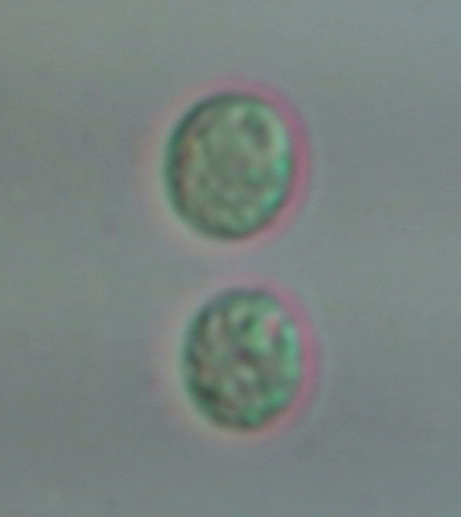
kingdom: Fungi
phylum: Basidiomycota
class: Agaricomycetes
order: Agaricales
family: Lyophyllaceae
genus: Tephrocybe
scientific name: Tephrocybe ambusta
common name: kul-gråblad
